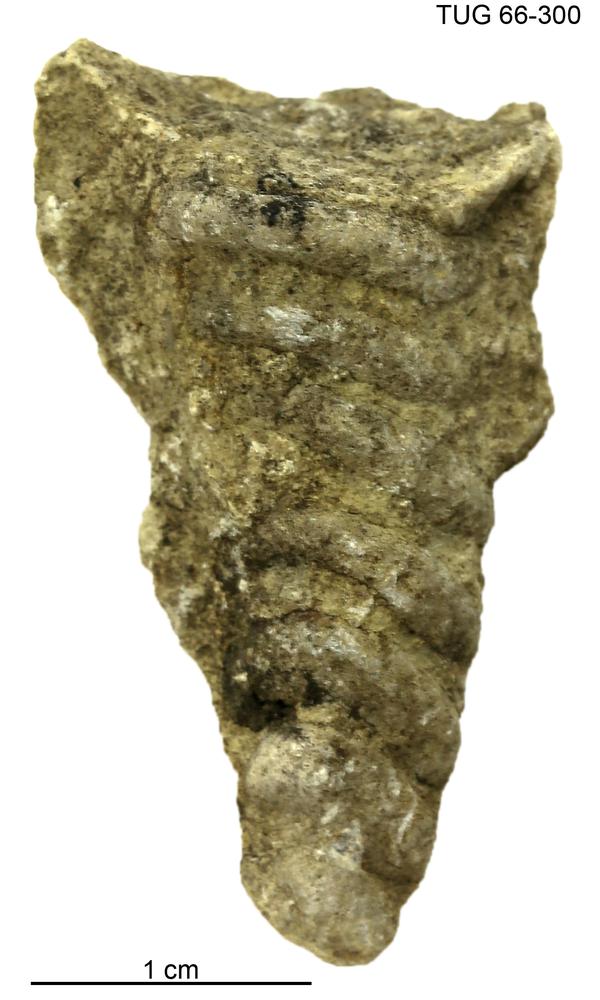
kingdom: Animalia
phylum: Mollusca
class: Cephalopoda
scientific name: Cephalopoda
